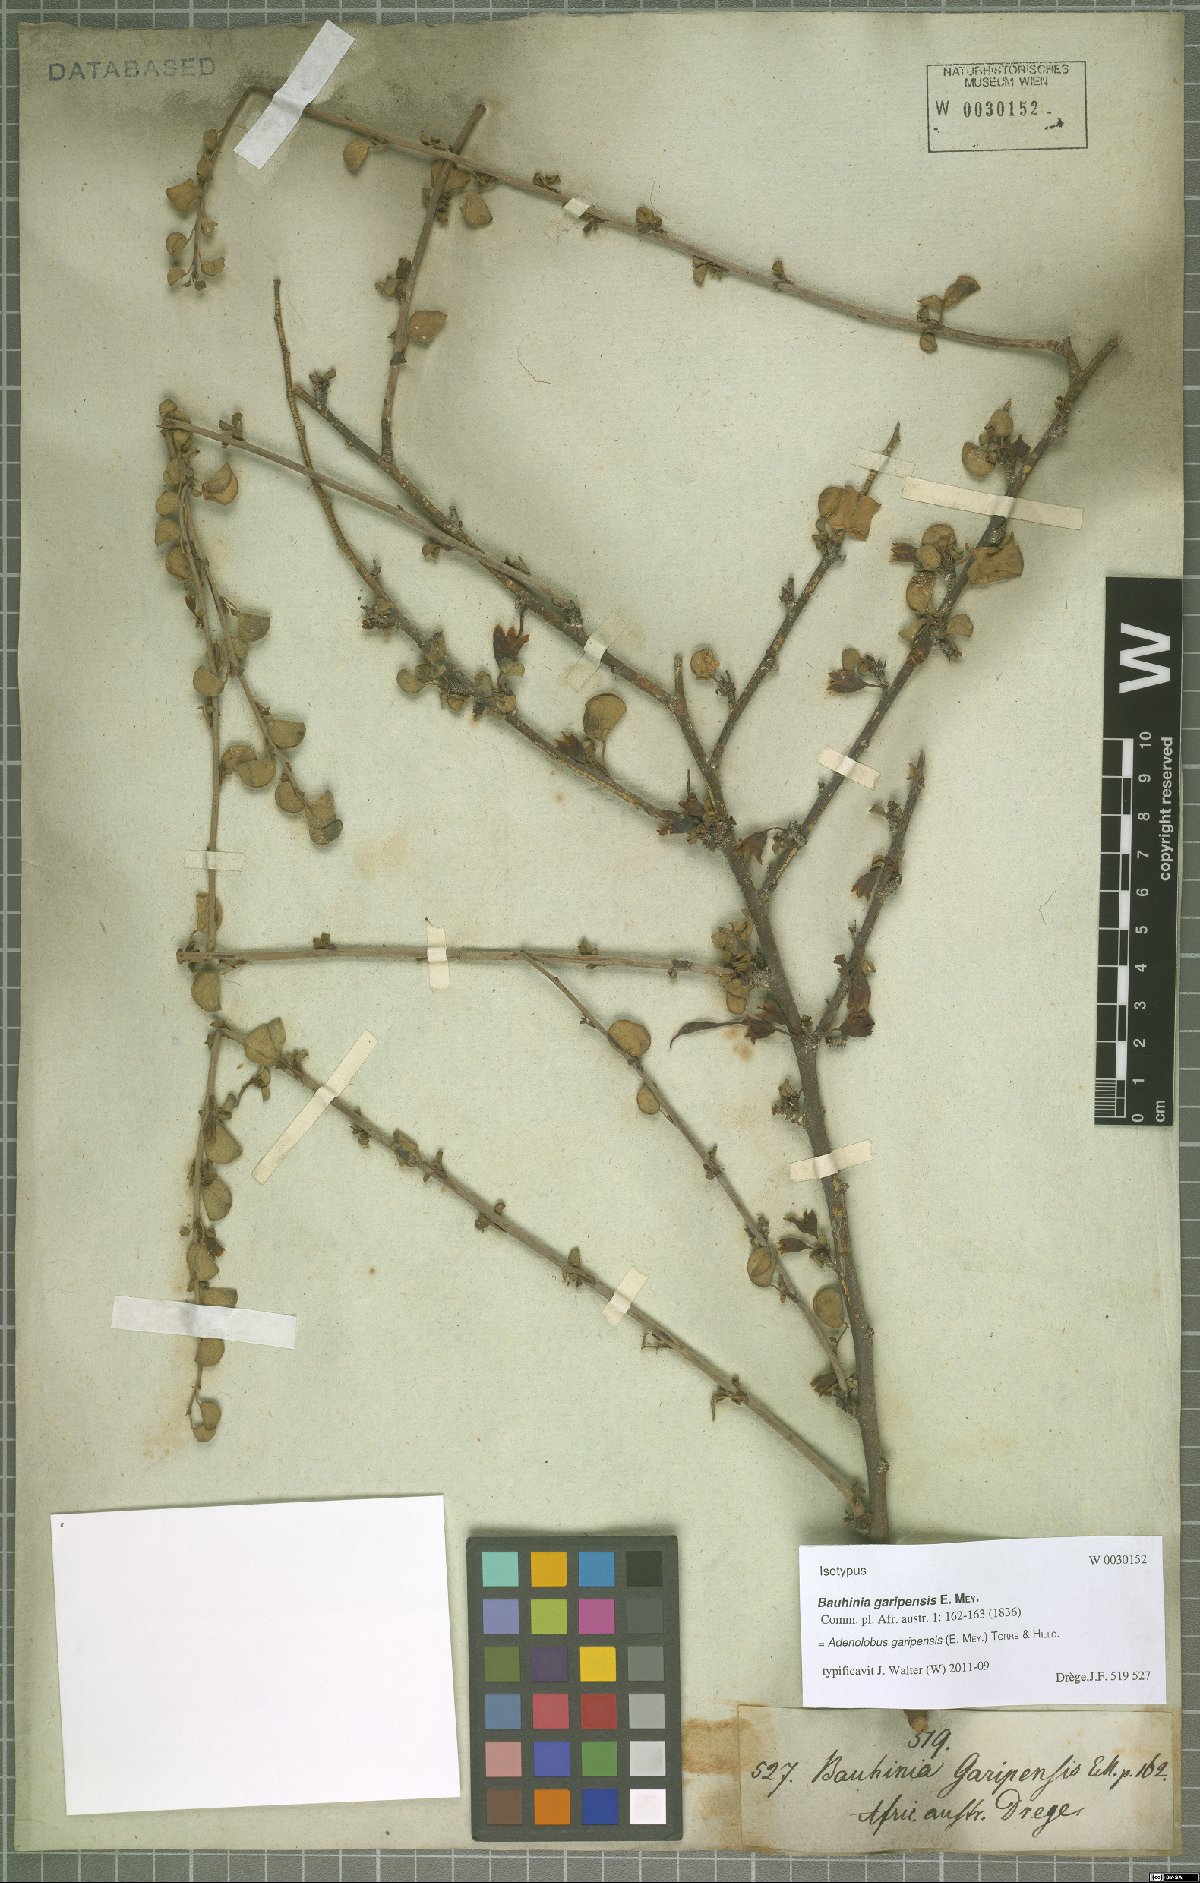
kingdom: Plantae
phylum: Tracheophyta
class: Magnoliopsida
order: Fabales
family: Fabaceae
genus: Adenolobus
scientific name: Adenolobus garipensis
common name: Butterfly-leaf
